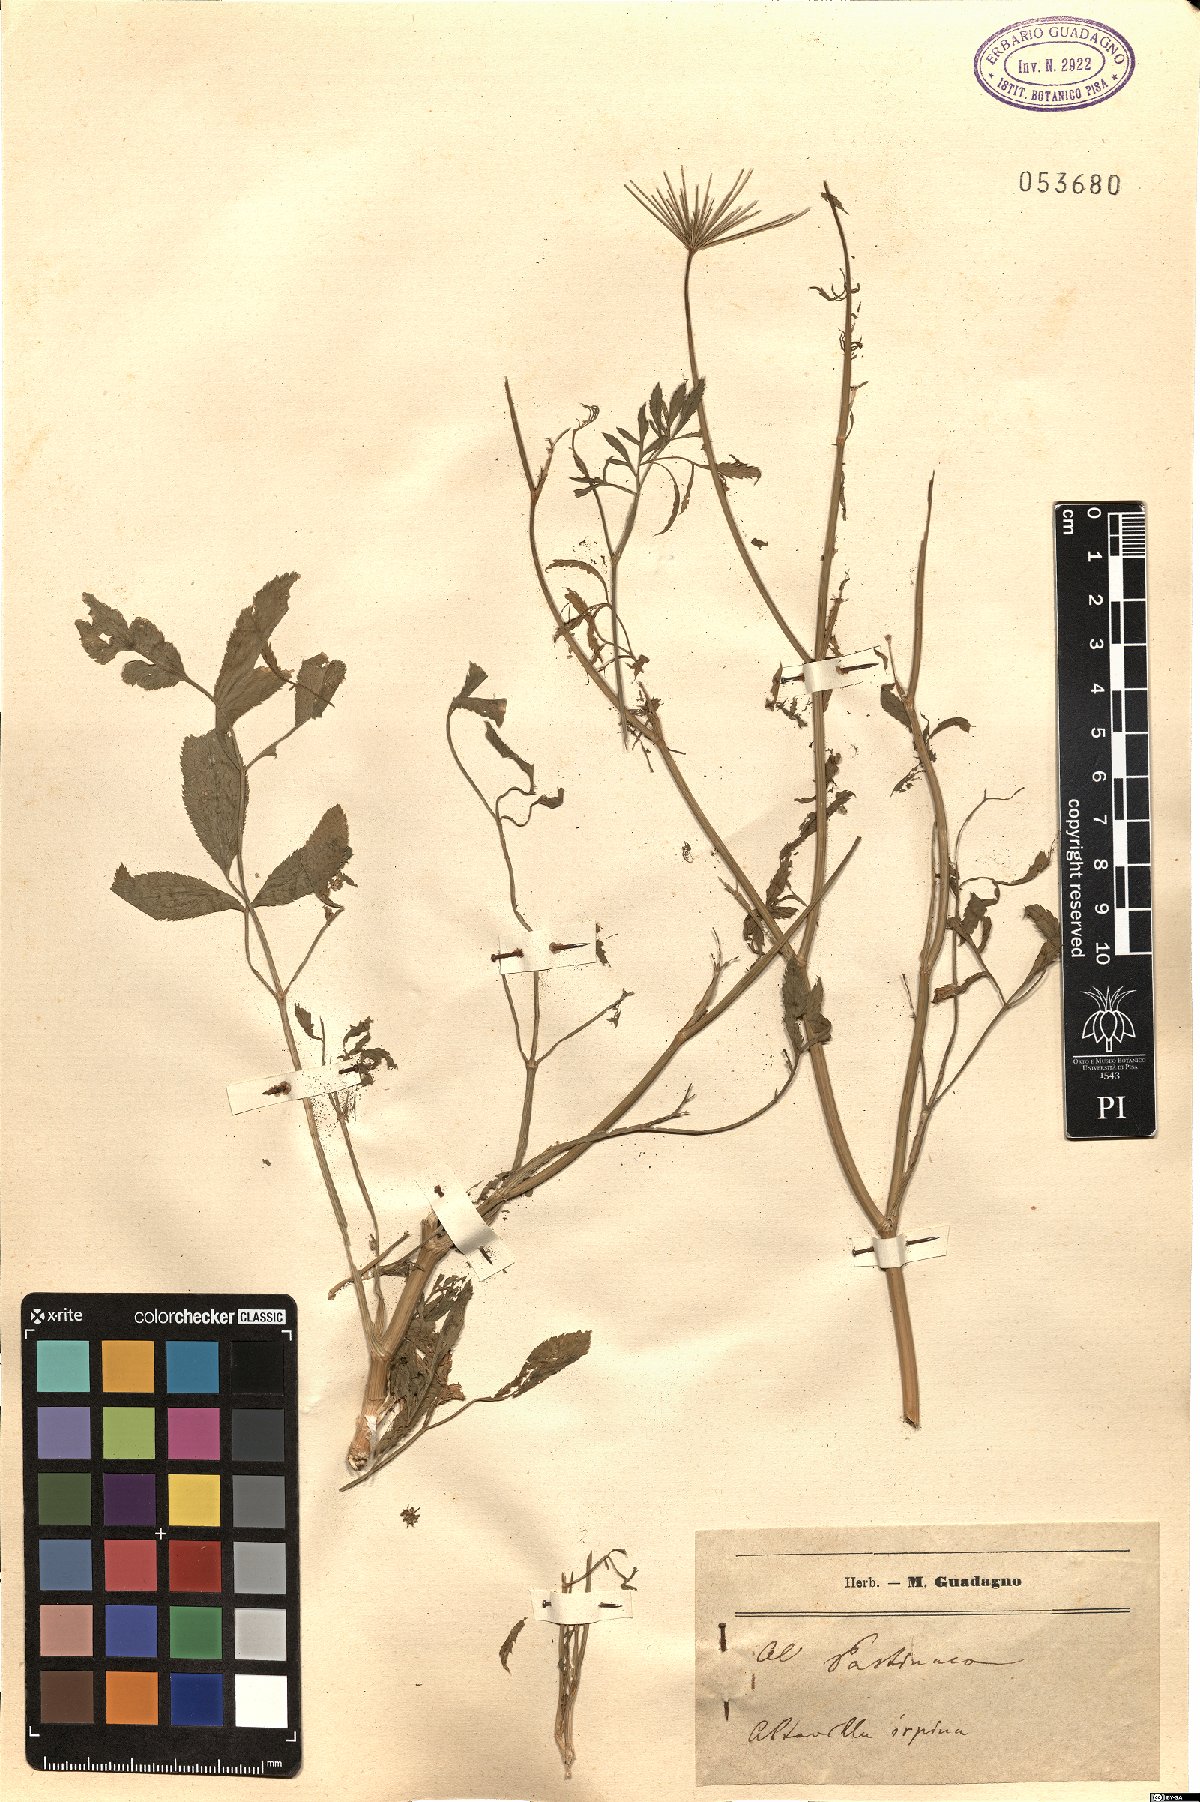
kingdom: Plantae
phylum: Tracheophyta
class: Magnoliopsida
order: Apiales
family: Apiaceae
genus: Ammi
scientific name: Ammi
